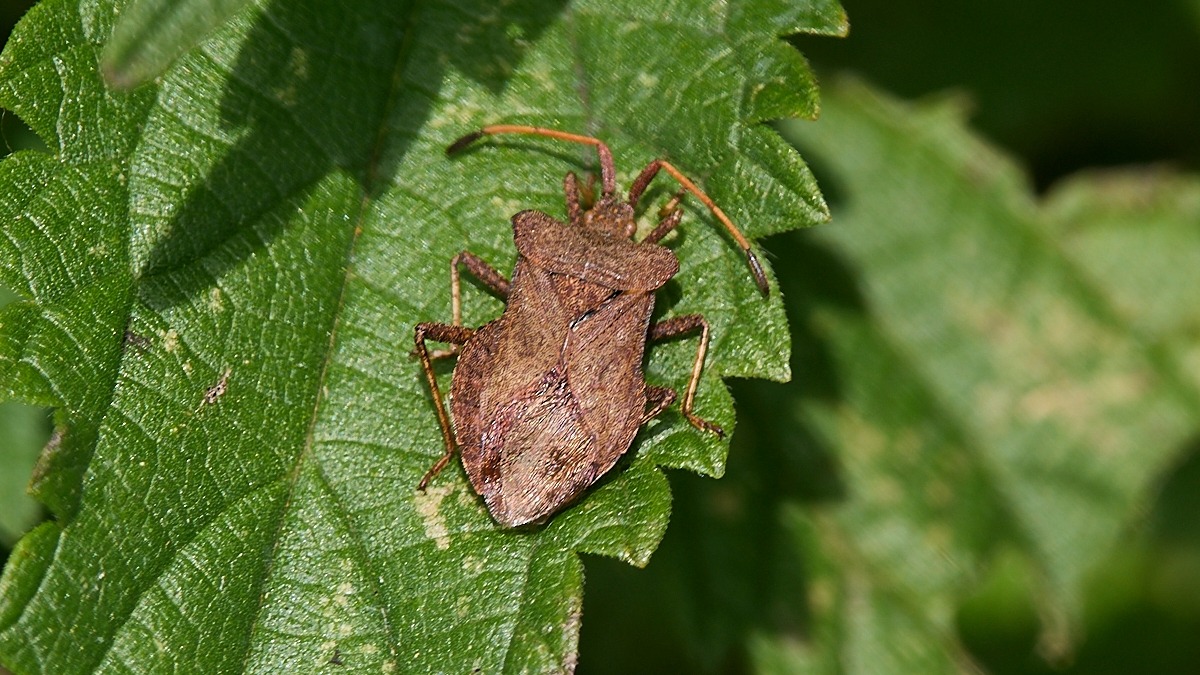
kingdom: Animalia
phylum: Arthropoda
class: Insecta
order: Hemiptera
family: Coreidae
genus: Coreus
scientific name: Coreus marginatus
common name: Skræppetæge
